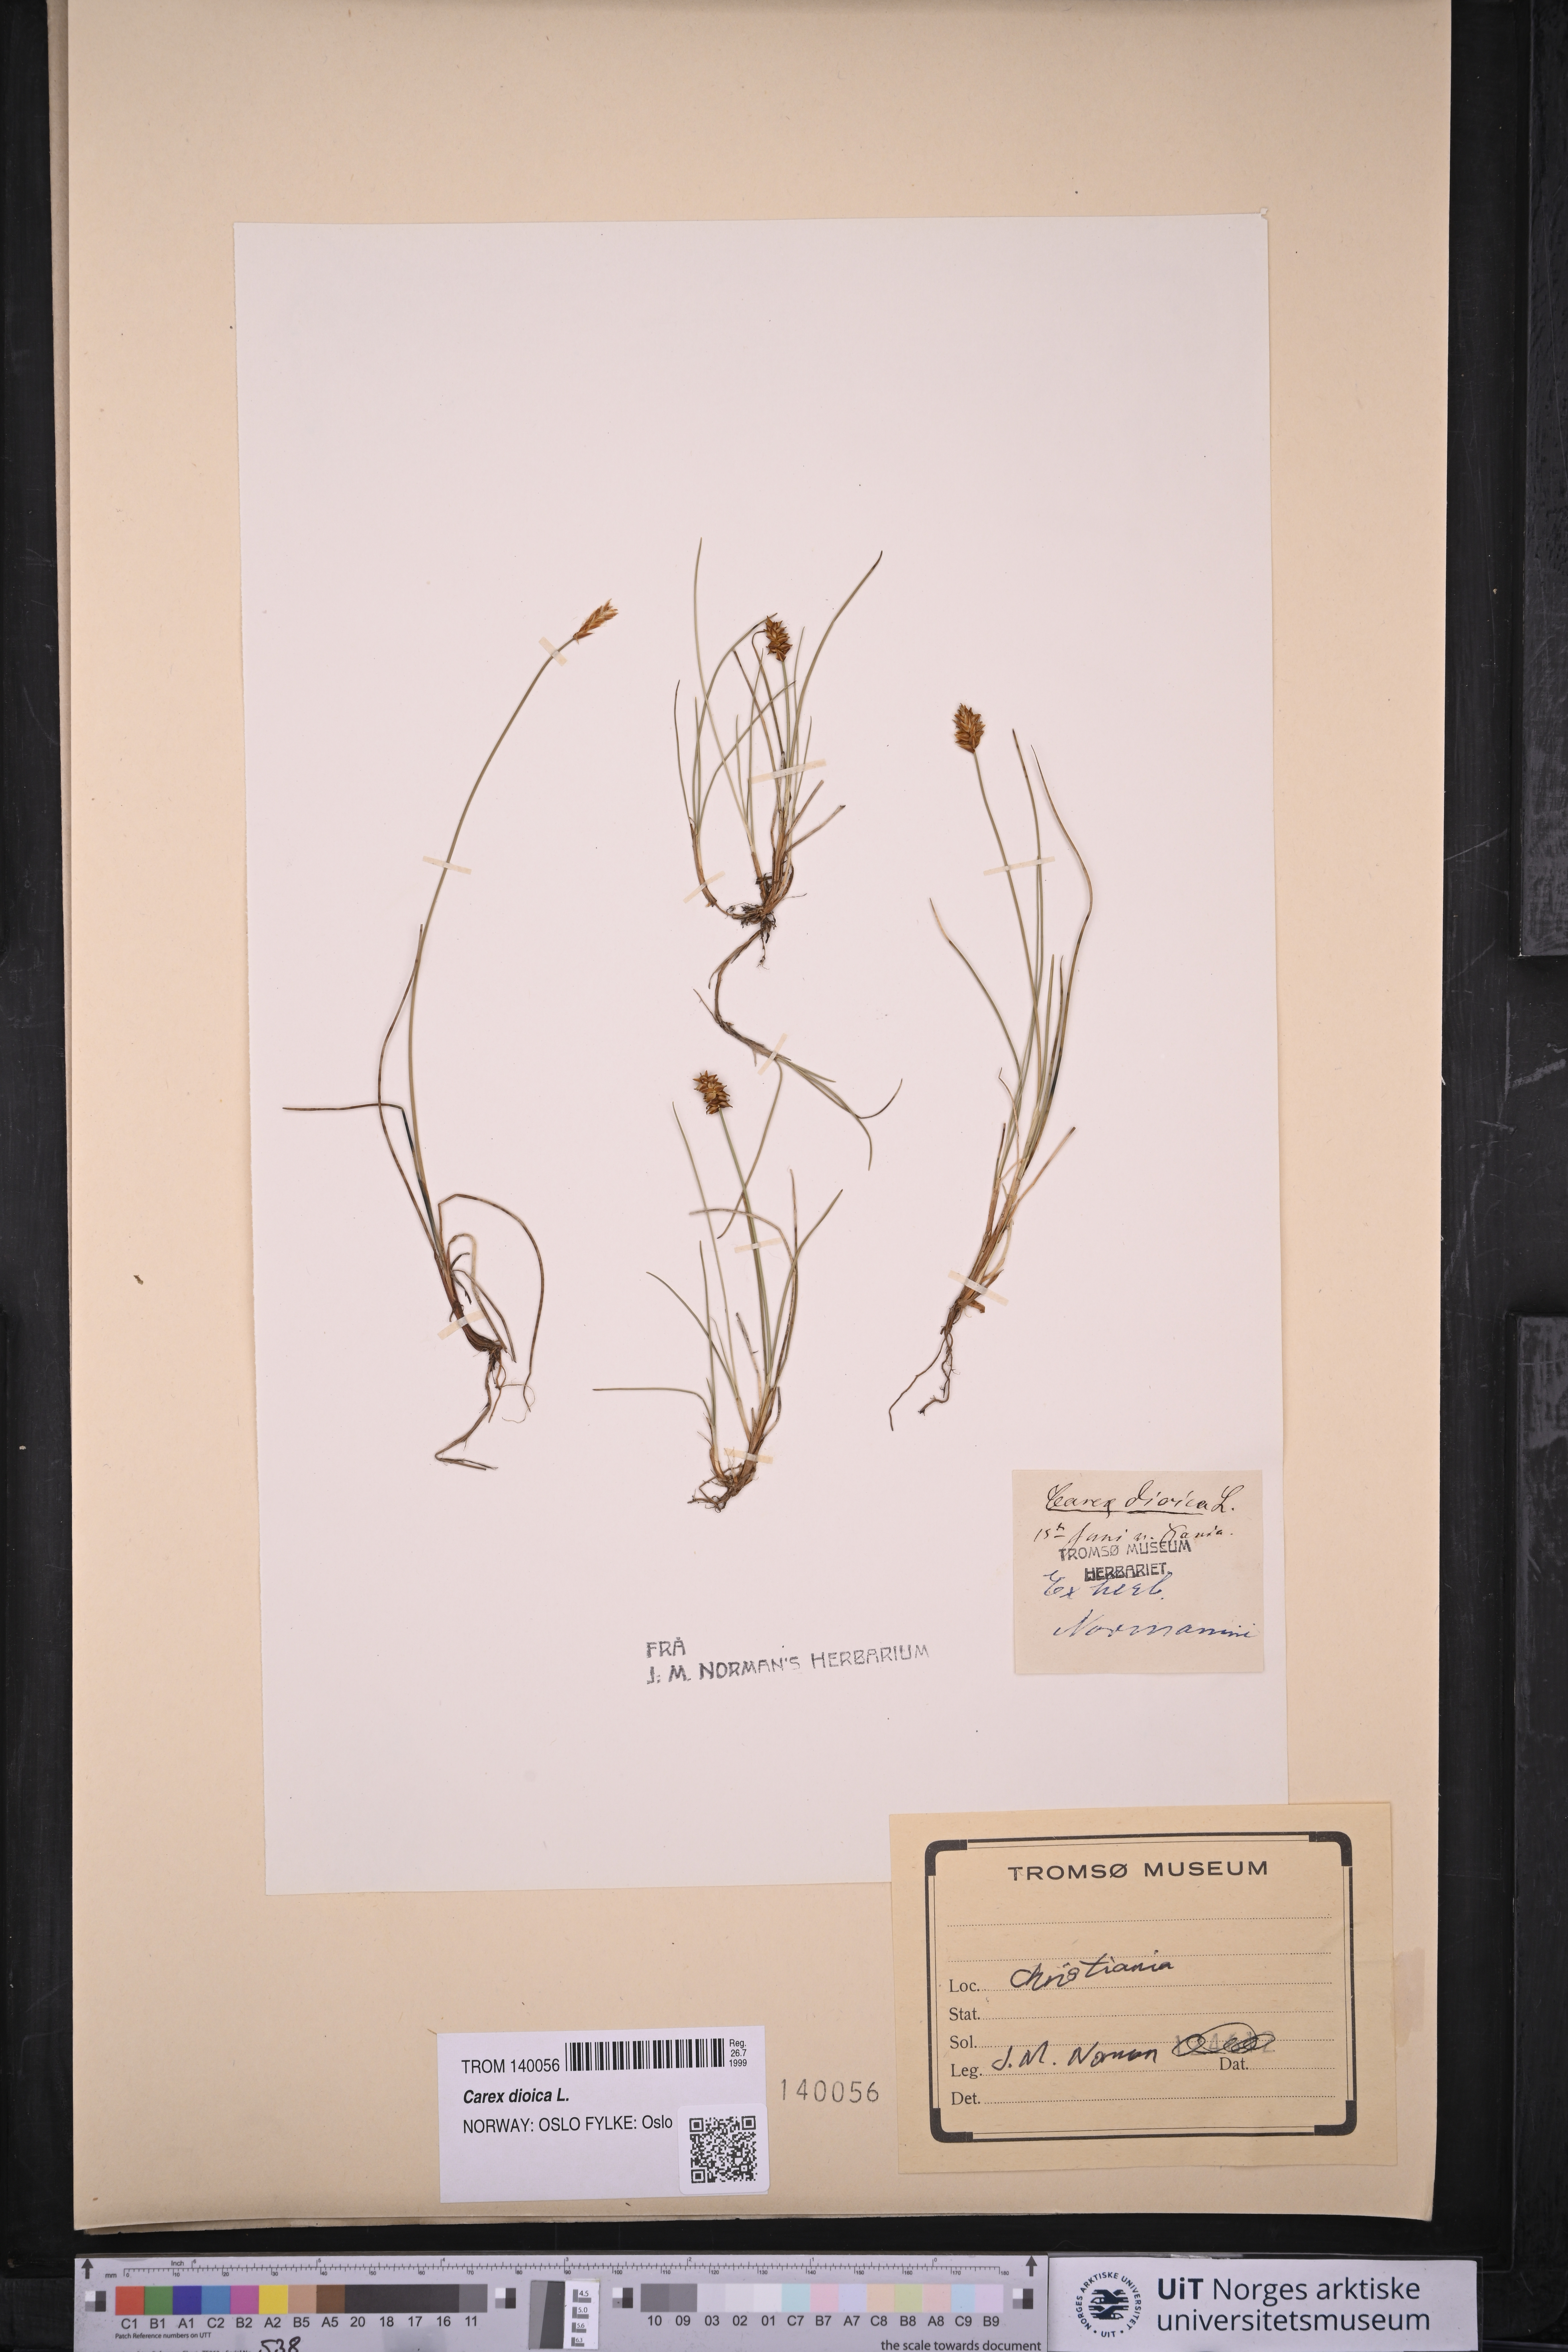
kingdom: Plantae
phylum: Tracheophyta
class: Liliopsida
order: Poales
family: Cyperaceae
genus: Carex
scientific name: Carex dioica
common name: Dioecious sedge
